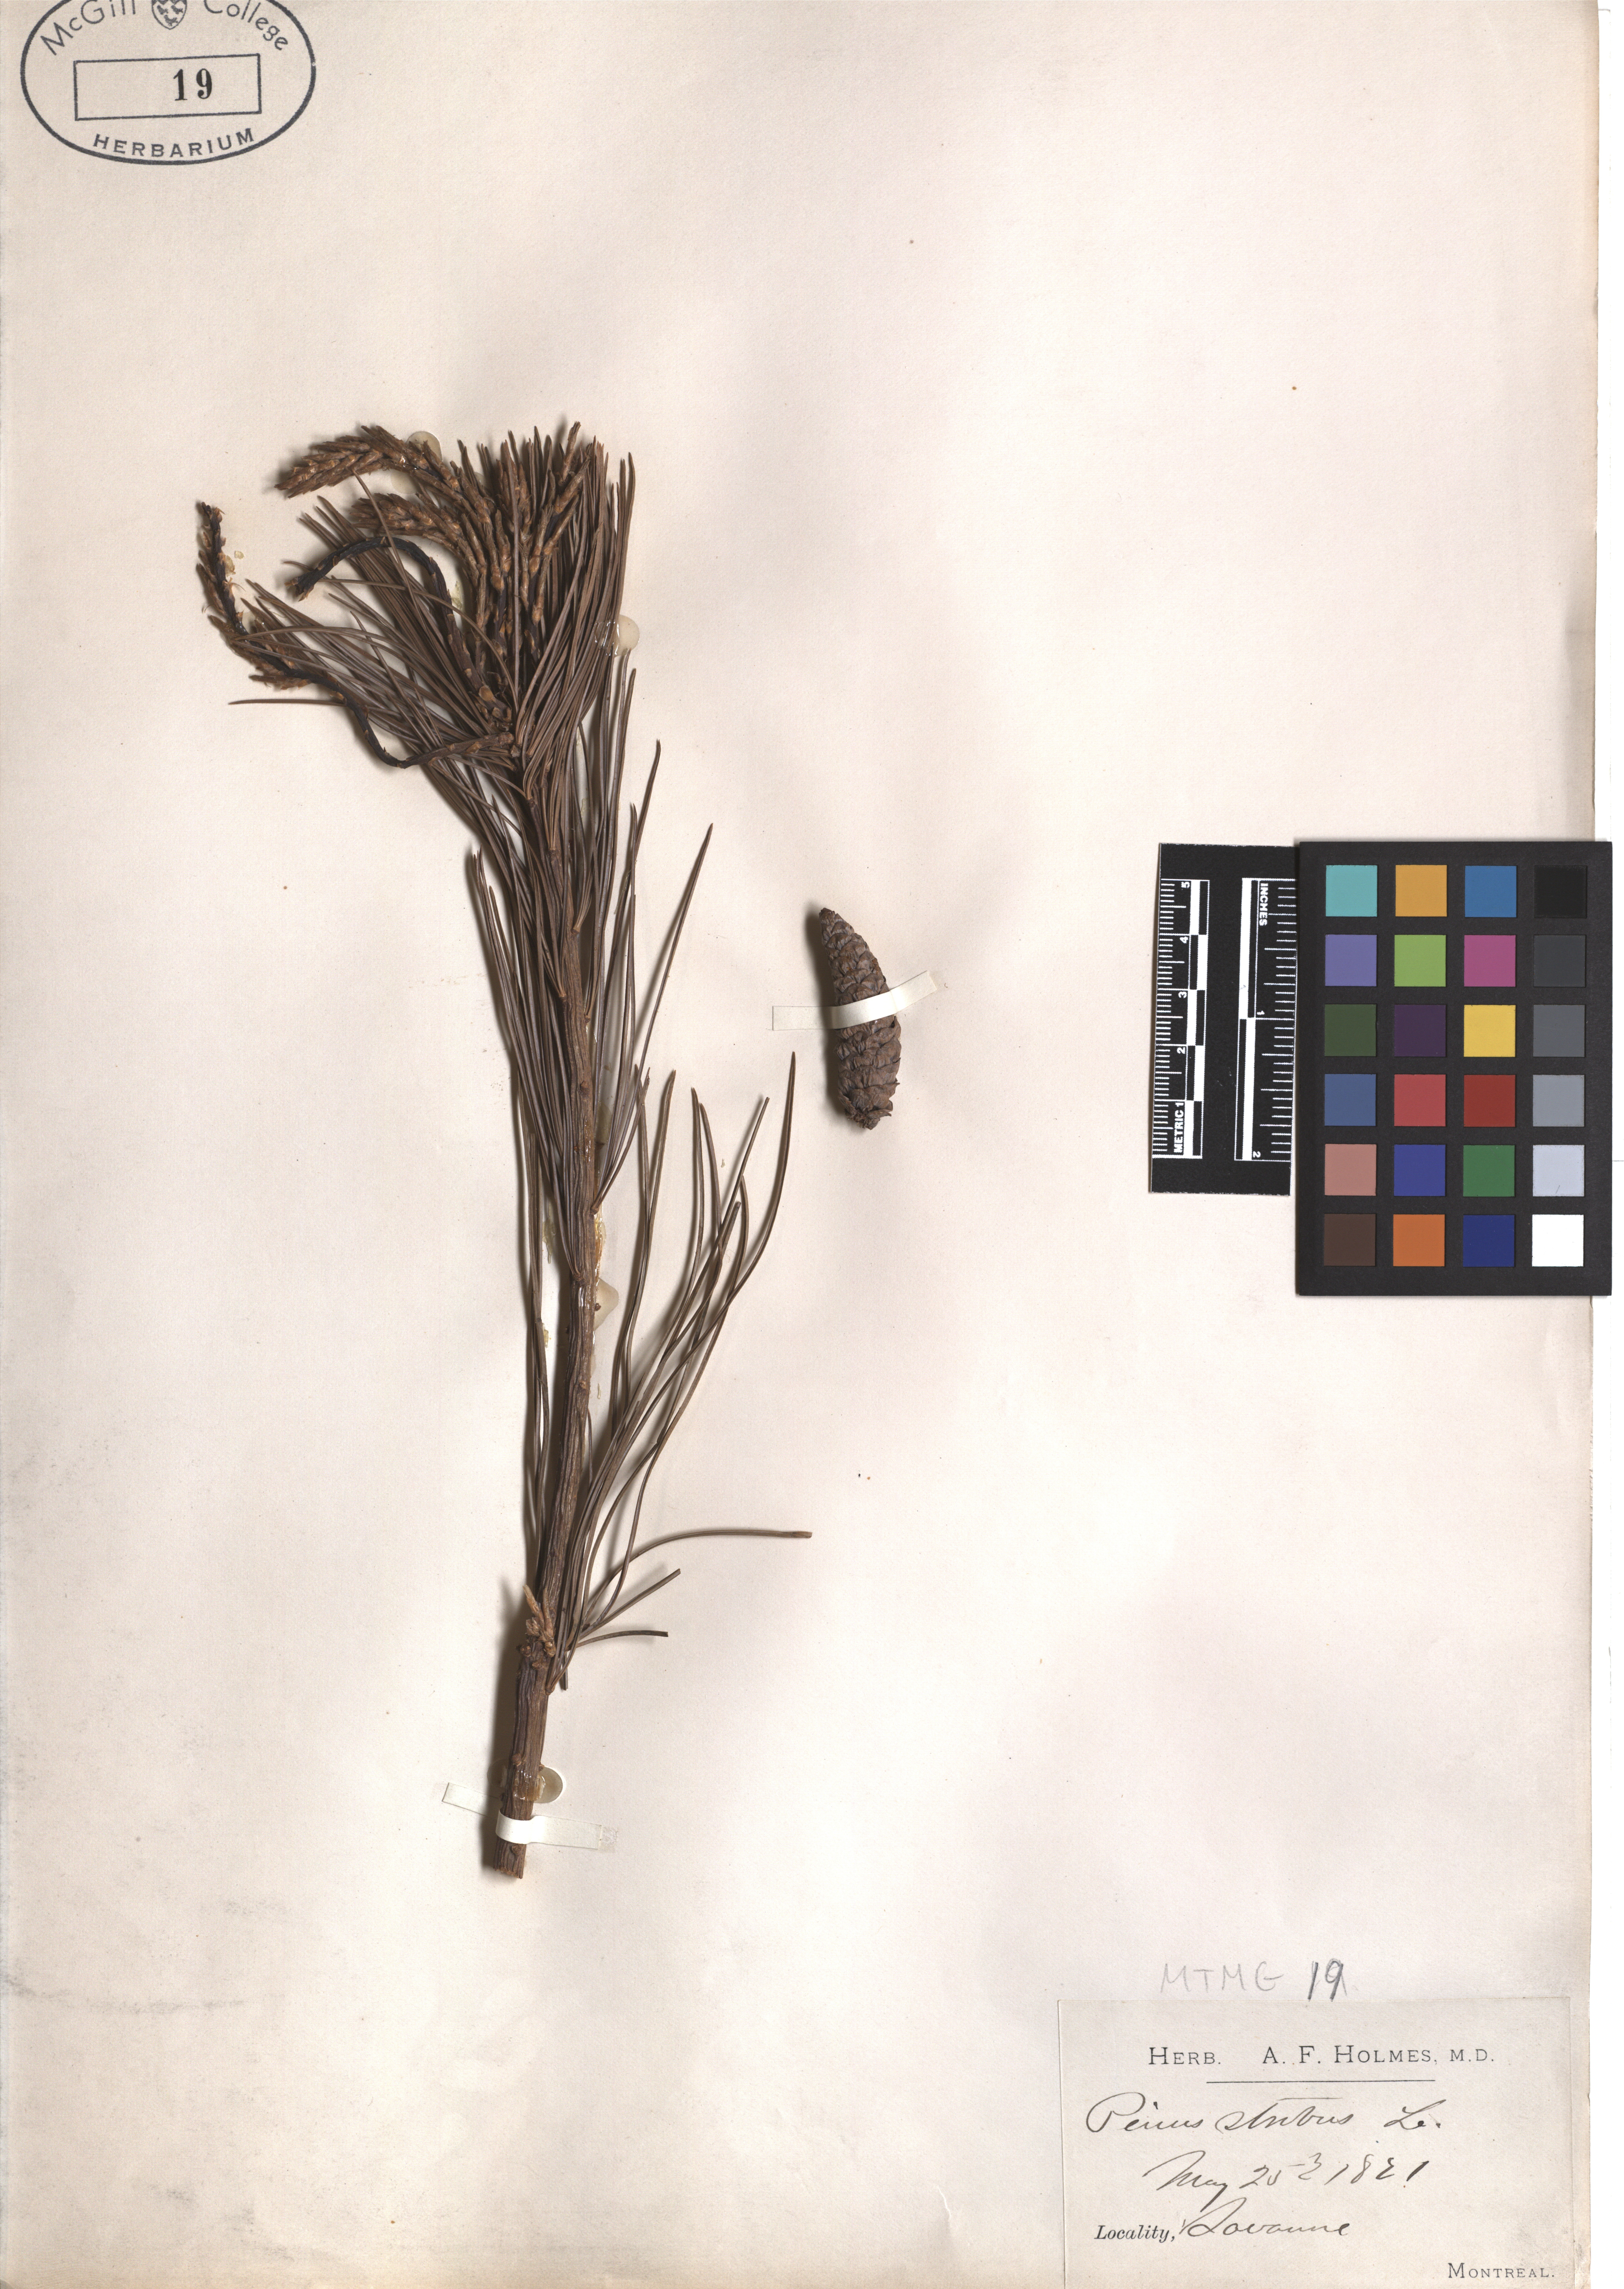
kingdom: Plantae
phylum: Tracheophyta
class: Pinopsida
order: Pinales
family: Pinaceae
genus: Pinus
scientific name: Pinus strobus
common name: Weymouth pine
